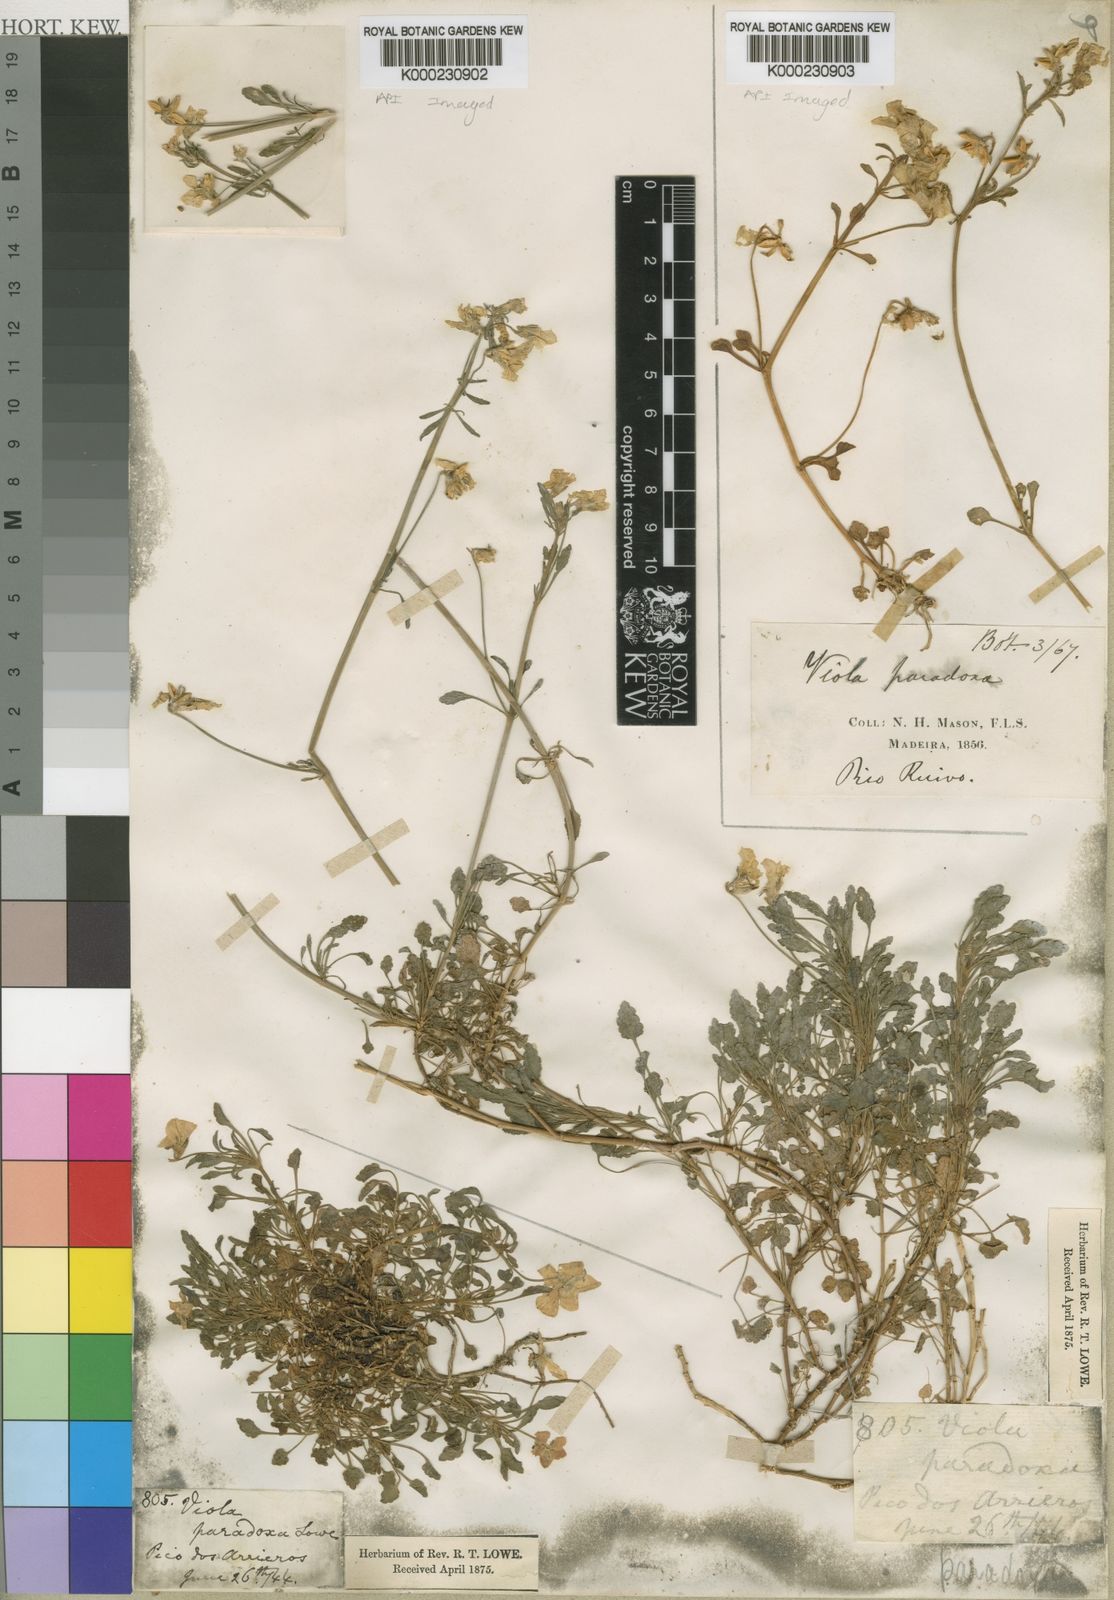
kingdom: Plantae
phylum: Tracheophyta
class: Magnoliopsida
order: Malpighiales
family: Violaceae
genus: Viola
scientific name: Viola paradoxa
